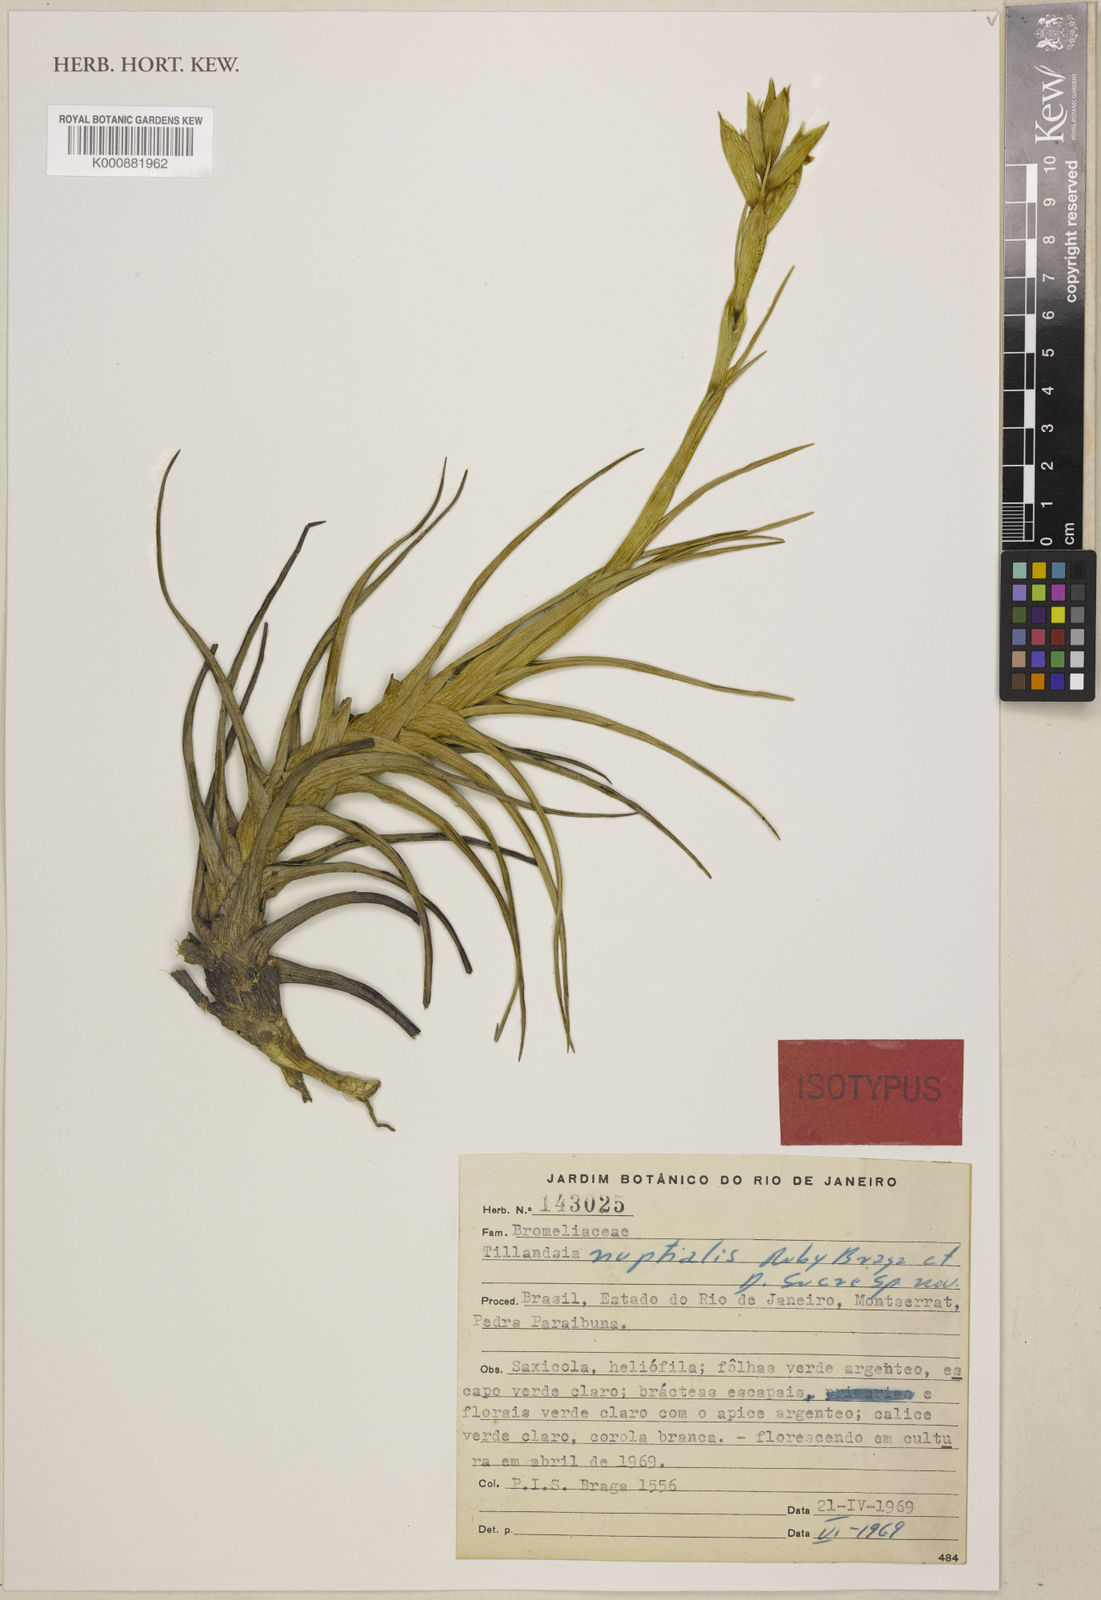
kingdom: Plantae
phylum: Tracheophyta
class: Liliopsida
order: Poales
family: Bromeliaceae
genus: Tillandsia
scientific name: Tillandsia nuptialis
